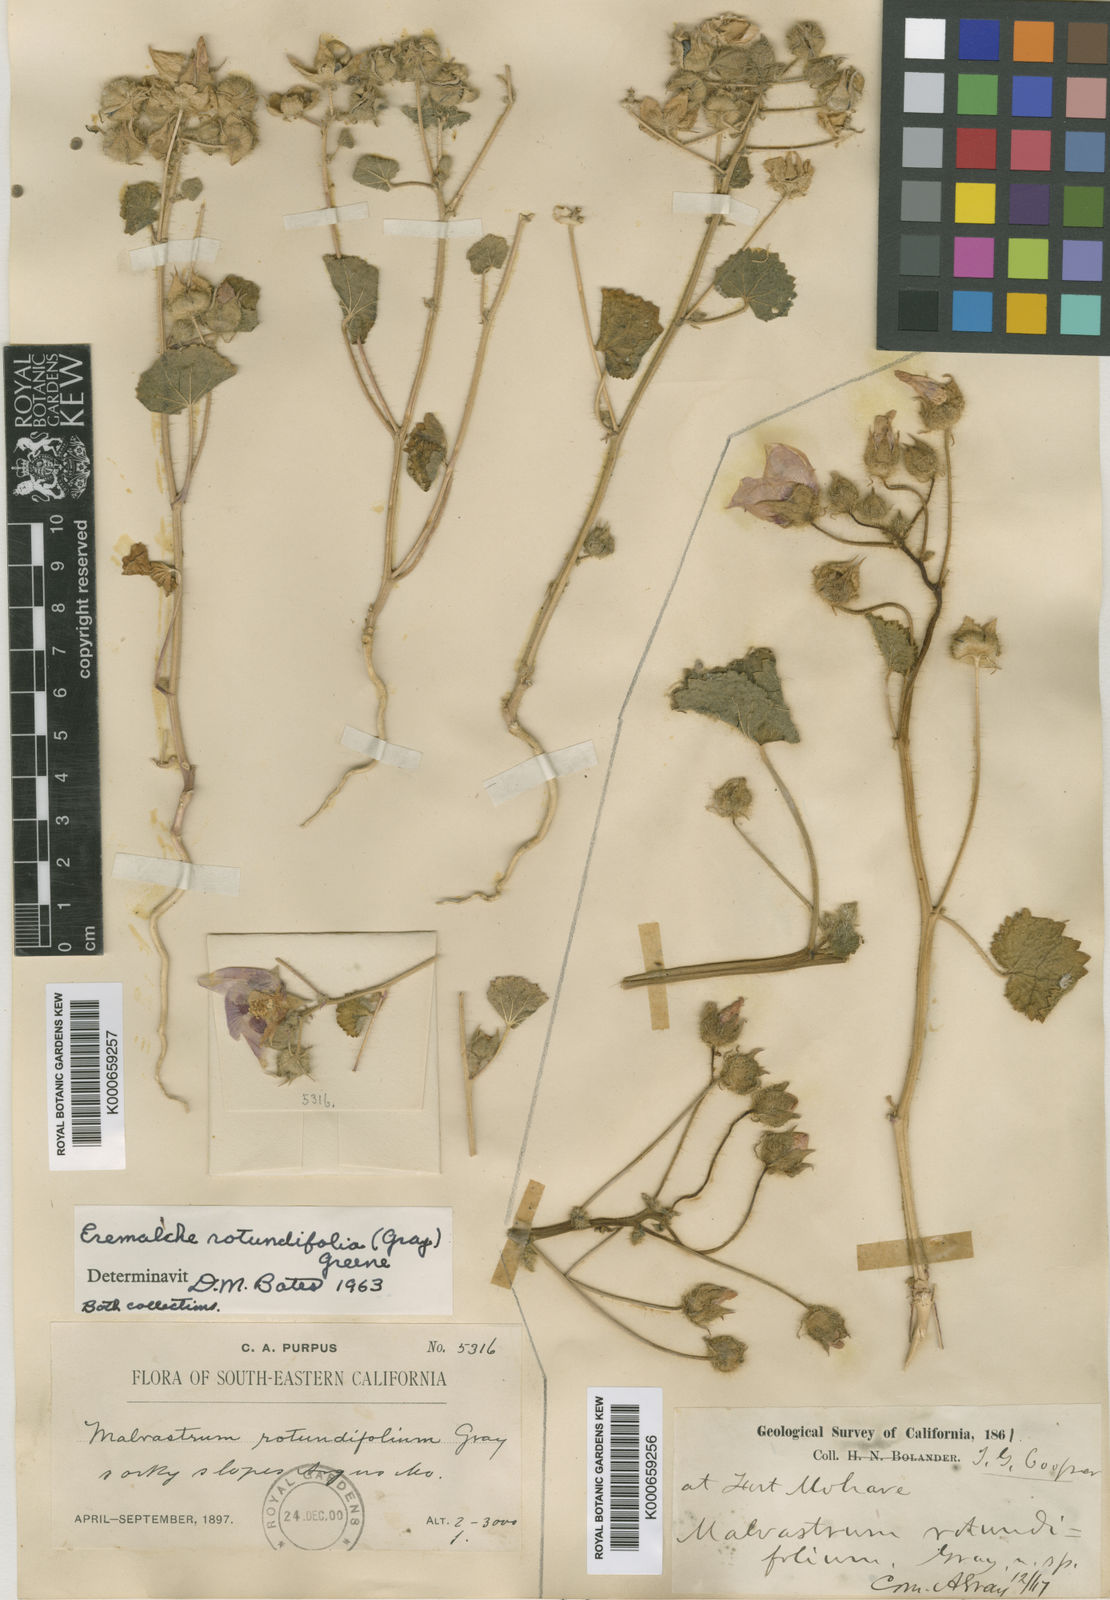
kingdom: Plantae
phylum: Tracheophyta
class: Magnoliopsida
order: Malvales
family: Malvaceae
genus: Eremalche
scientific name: Eremalche rotundifolia
